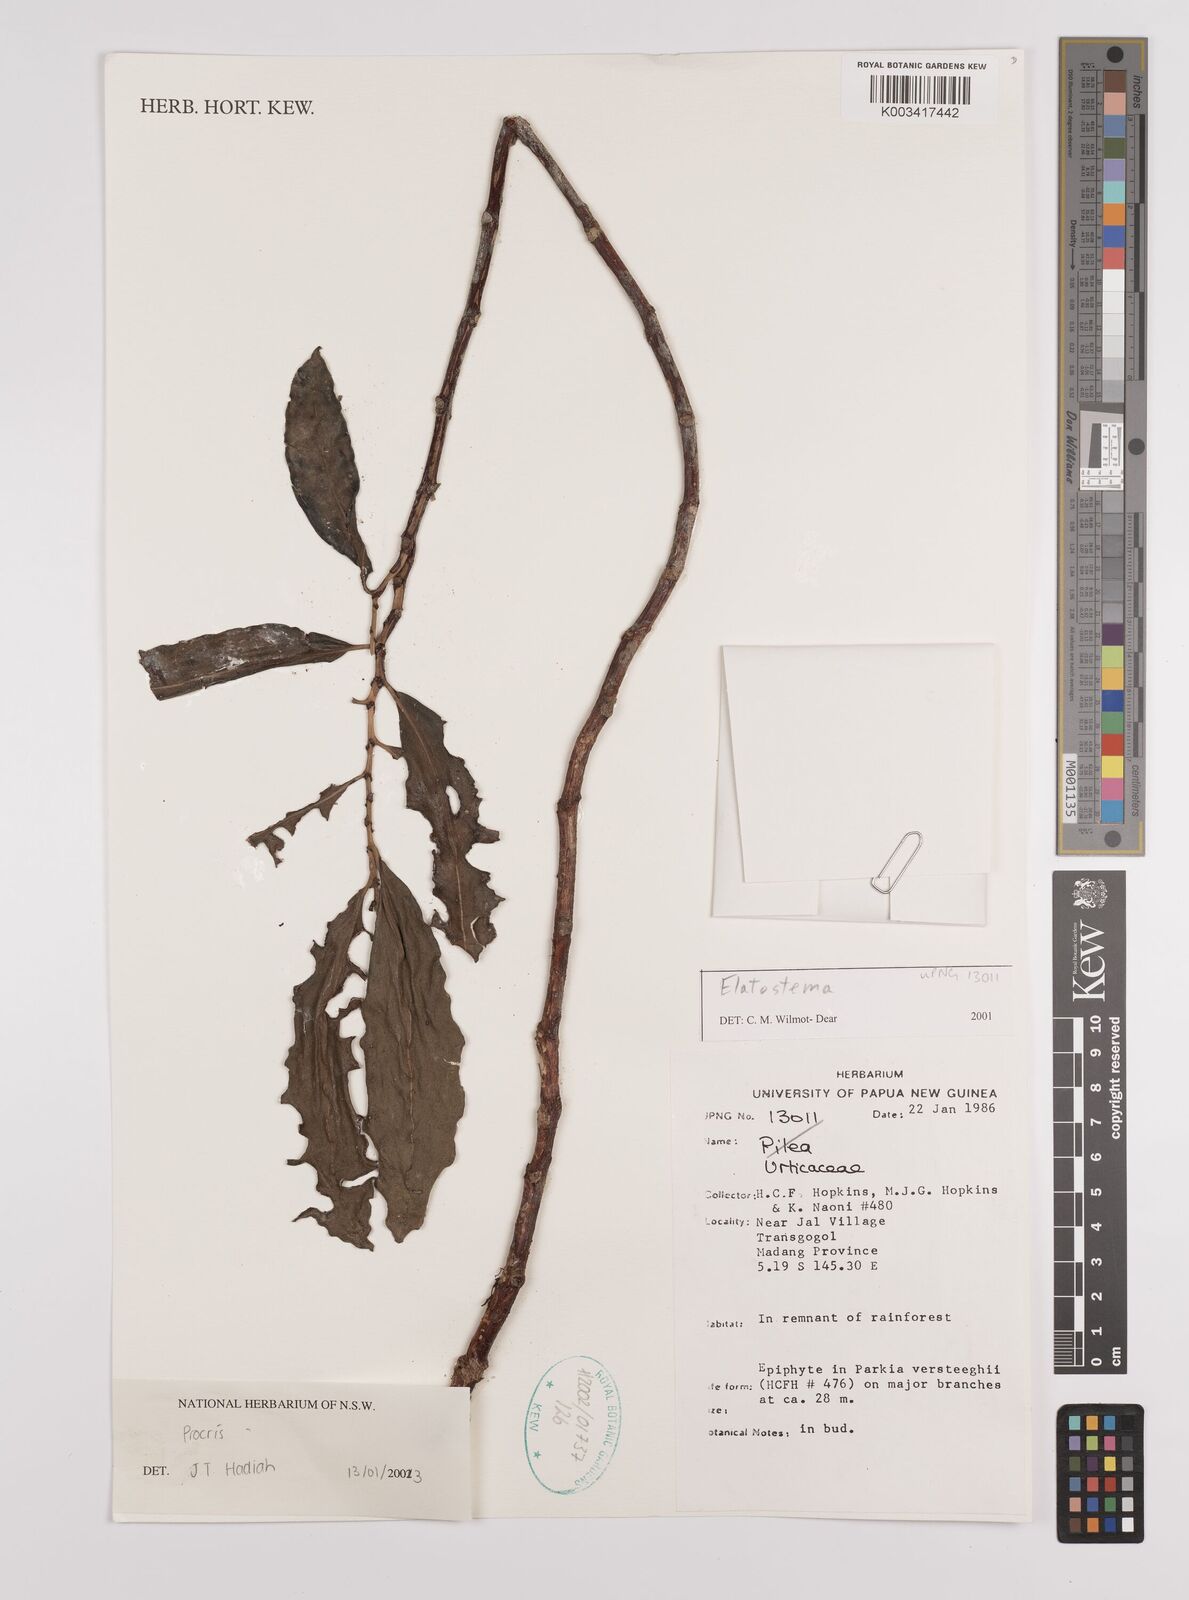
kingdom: Plantae
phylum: Tracheophyta
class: Magnoliopsida
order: Rosales
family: Urticaceae
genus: Procris
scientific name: Procris
